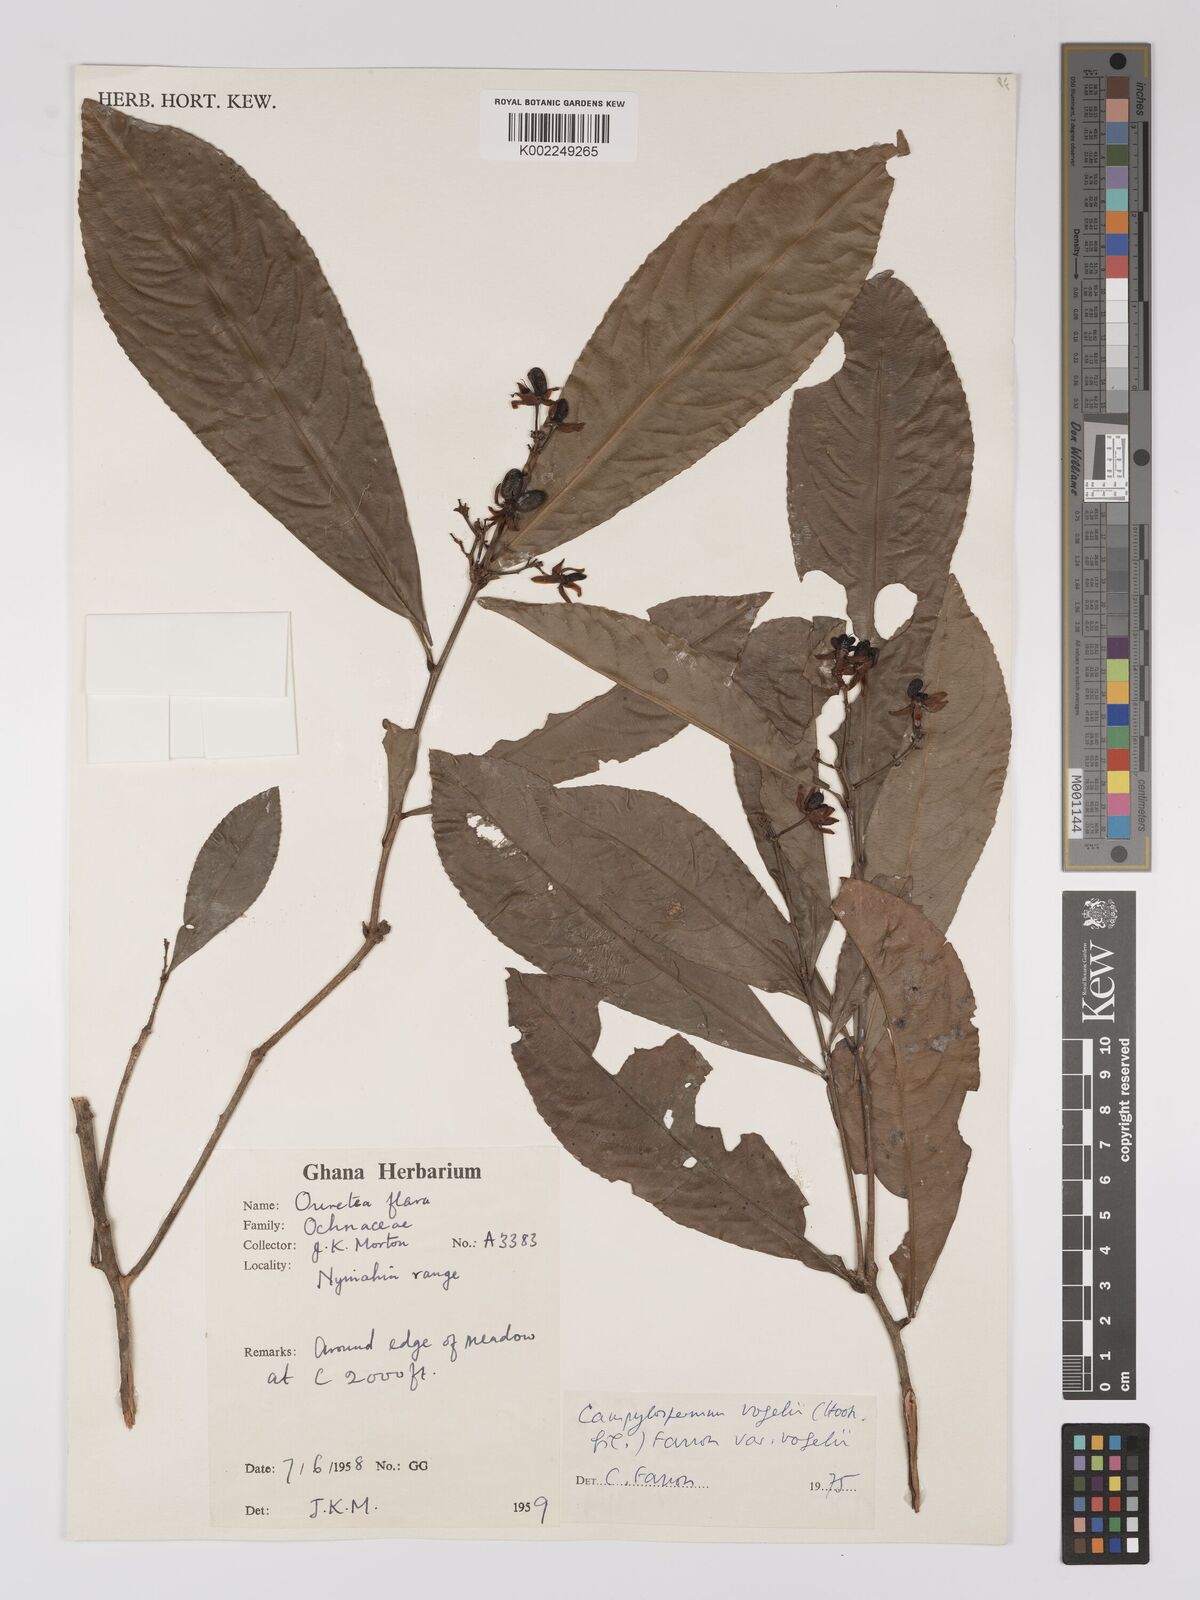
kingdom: Plantae
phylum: Tracheophyta
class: Magnoliopsida
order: Malpighiales
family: Ochnaceae
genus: Campylospermum
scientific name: Campylospermum vogelii
